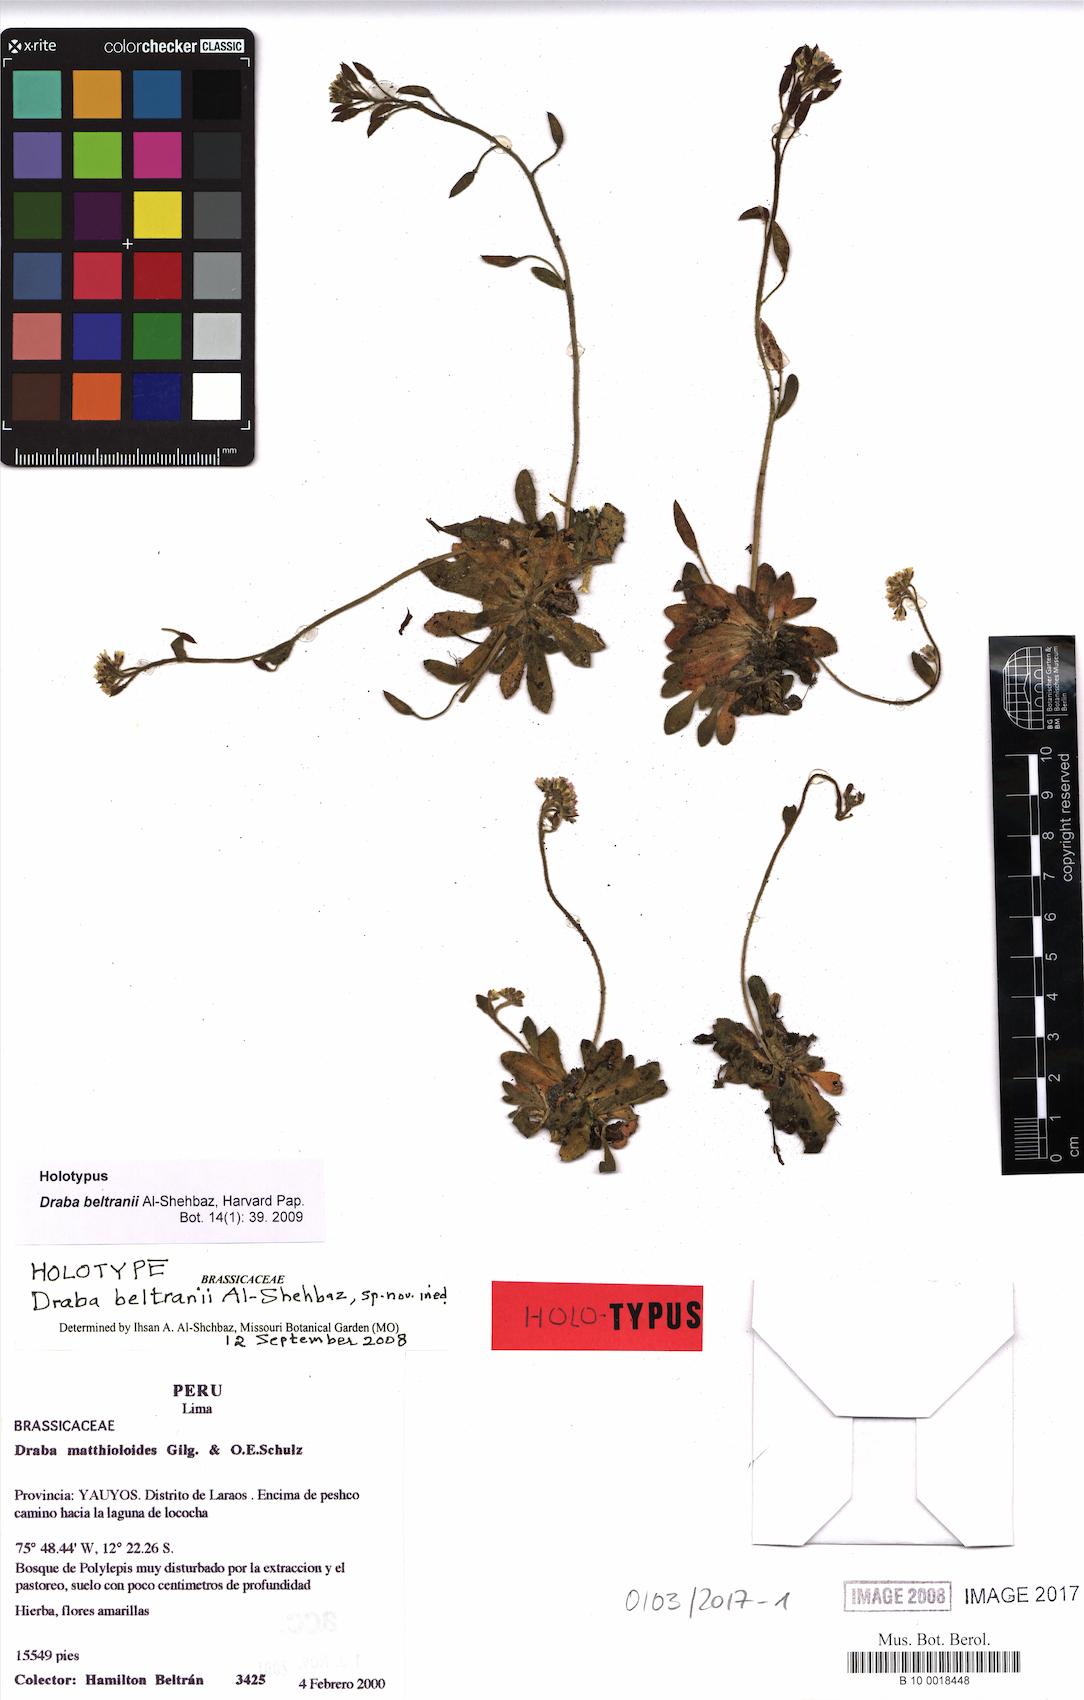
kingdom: Plantae
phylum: Tracheophyta
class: Magnoliopsida
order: Brassicales
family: Brassicaceae
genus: Draba
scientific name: Draba beltrani
